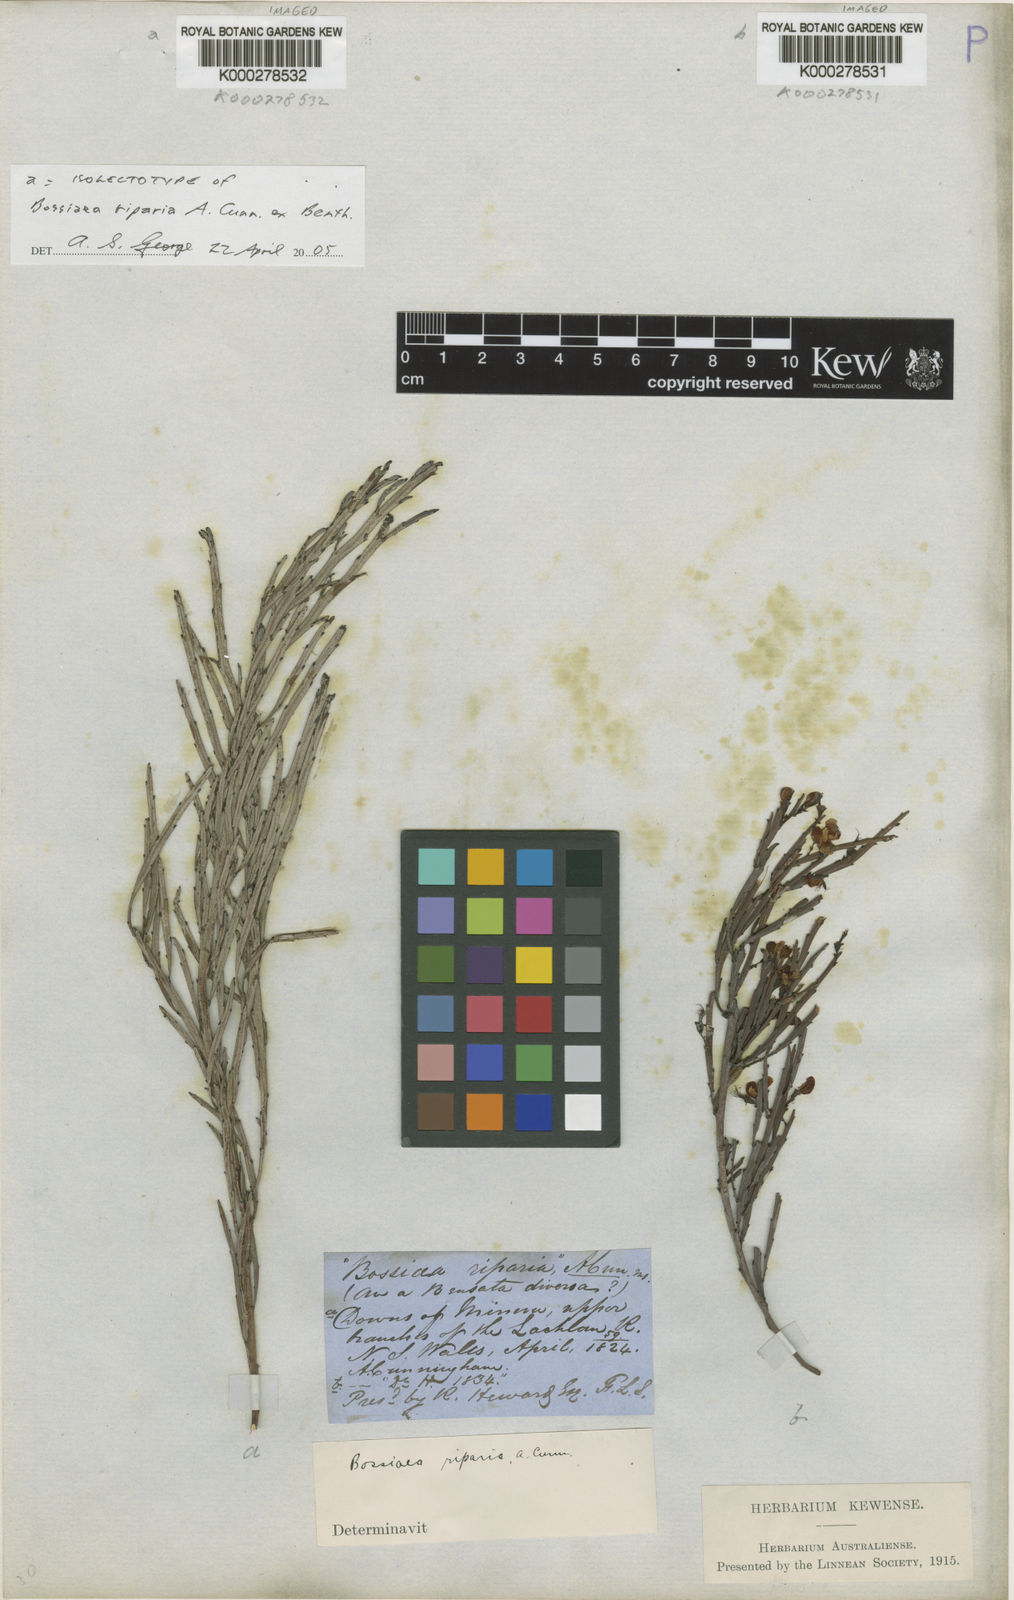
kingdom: Plantae
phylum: Tracheophyta
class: Magnoliopsida
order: Fabales
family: Fabaceae
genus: Bossiaea
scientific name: Bossiaea riparia
